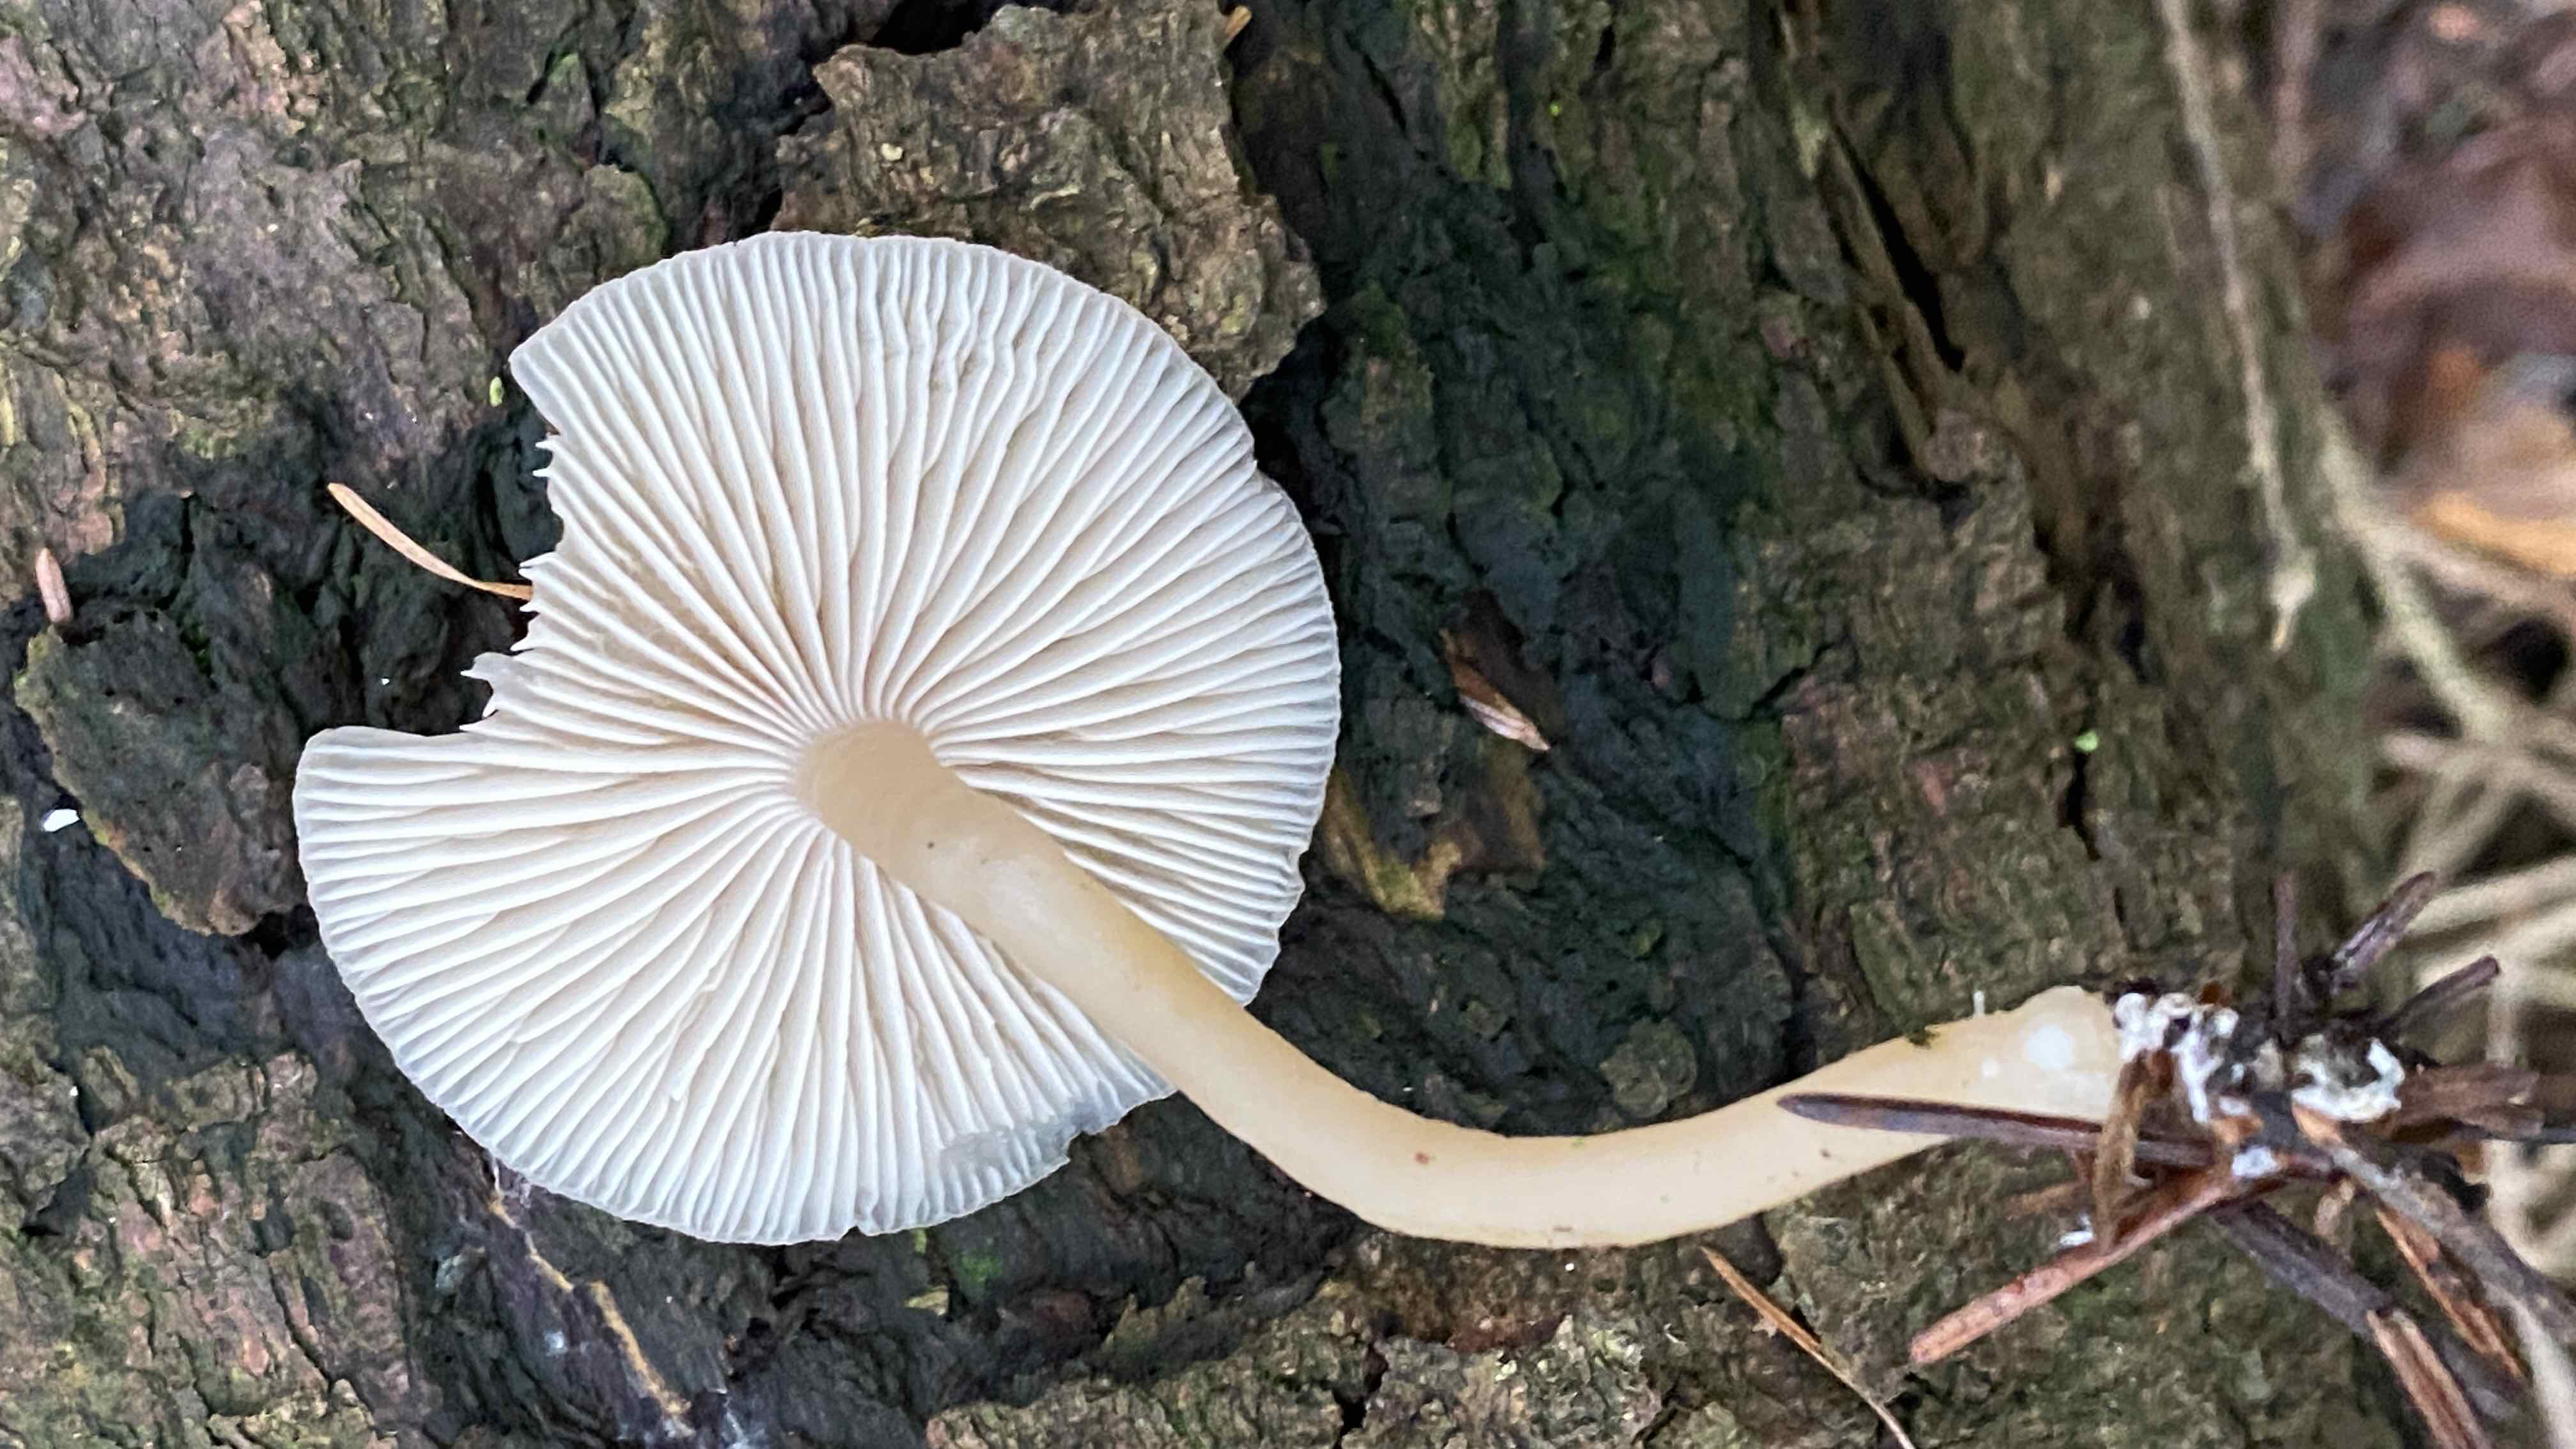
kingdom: Fungi
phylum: Basidiomycota
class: Agaricomycetes
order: Agaricales
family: Tricholomataceae
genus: Clitocybe
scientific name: Clitocybe fragrans
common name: vellugtende tragthat
